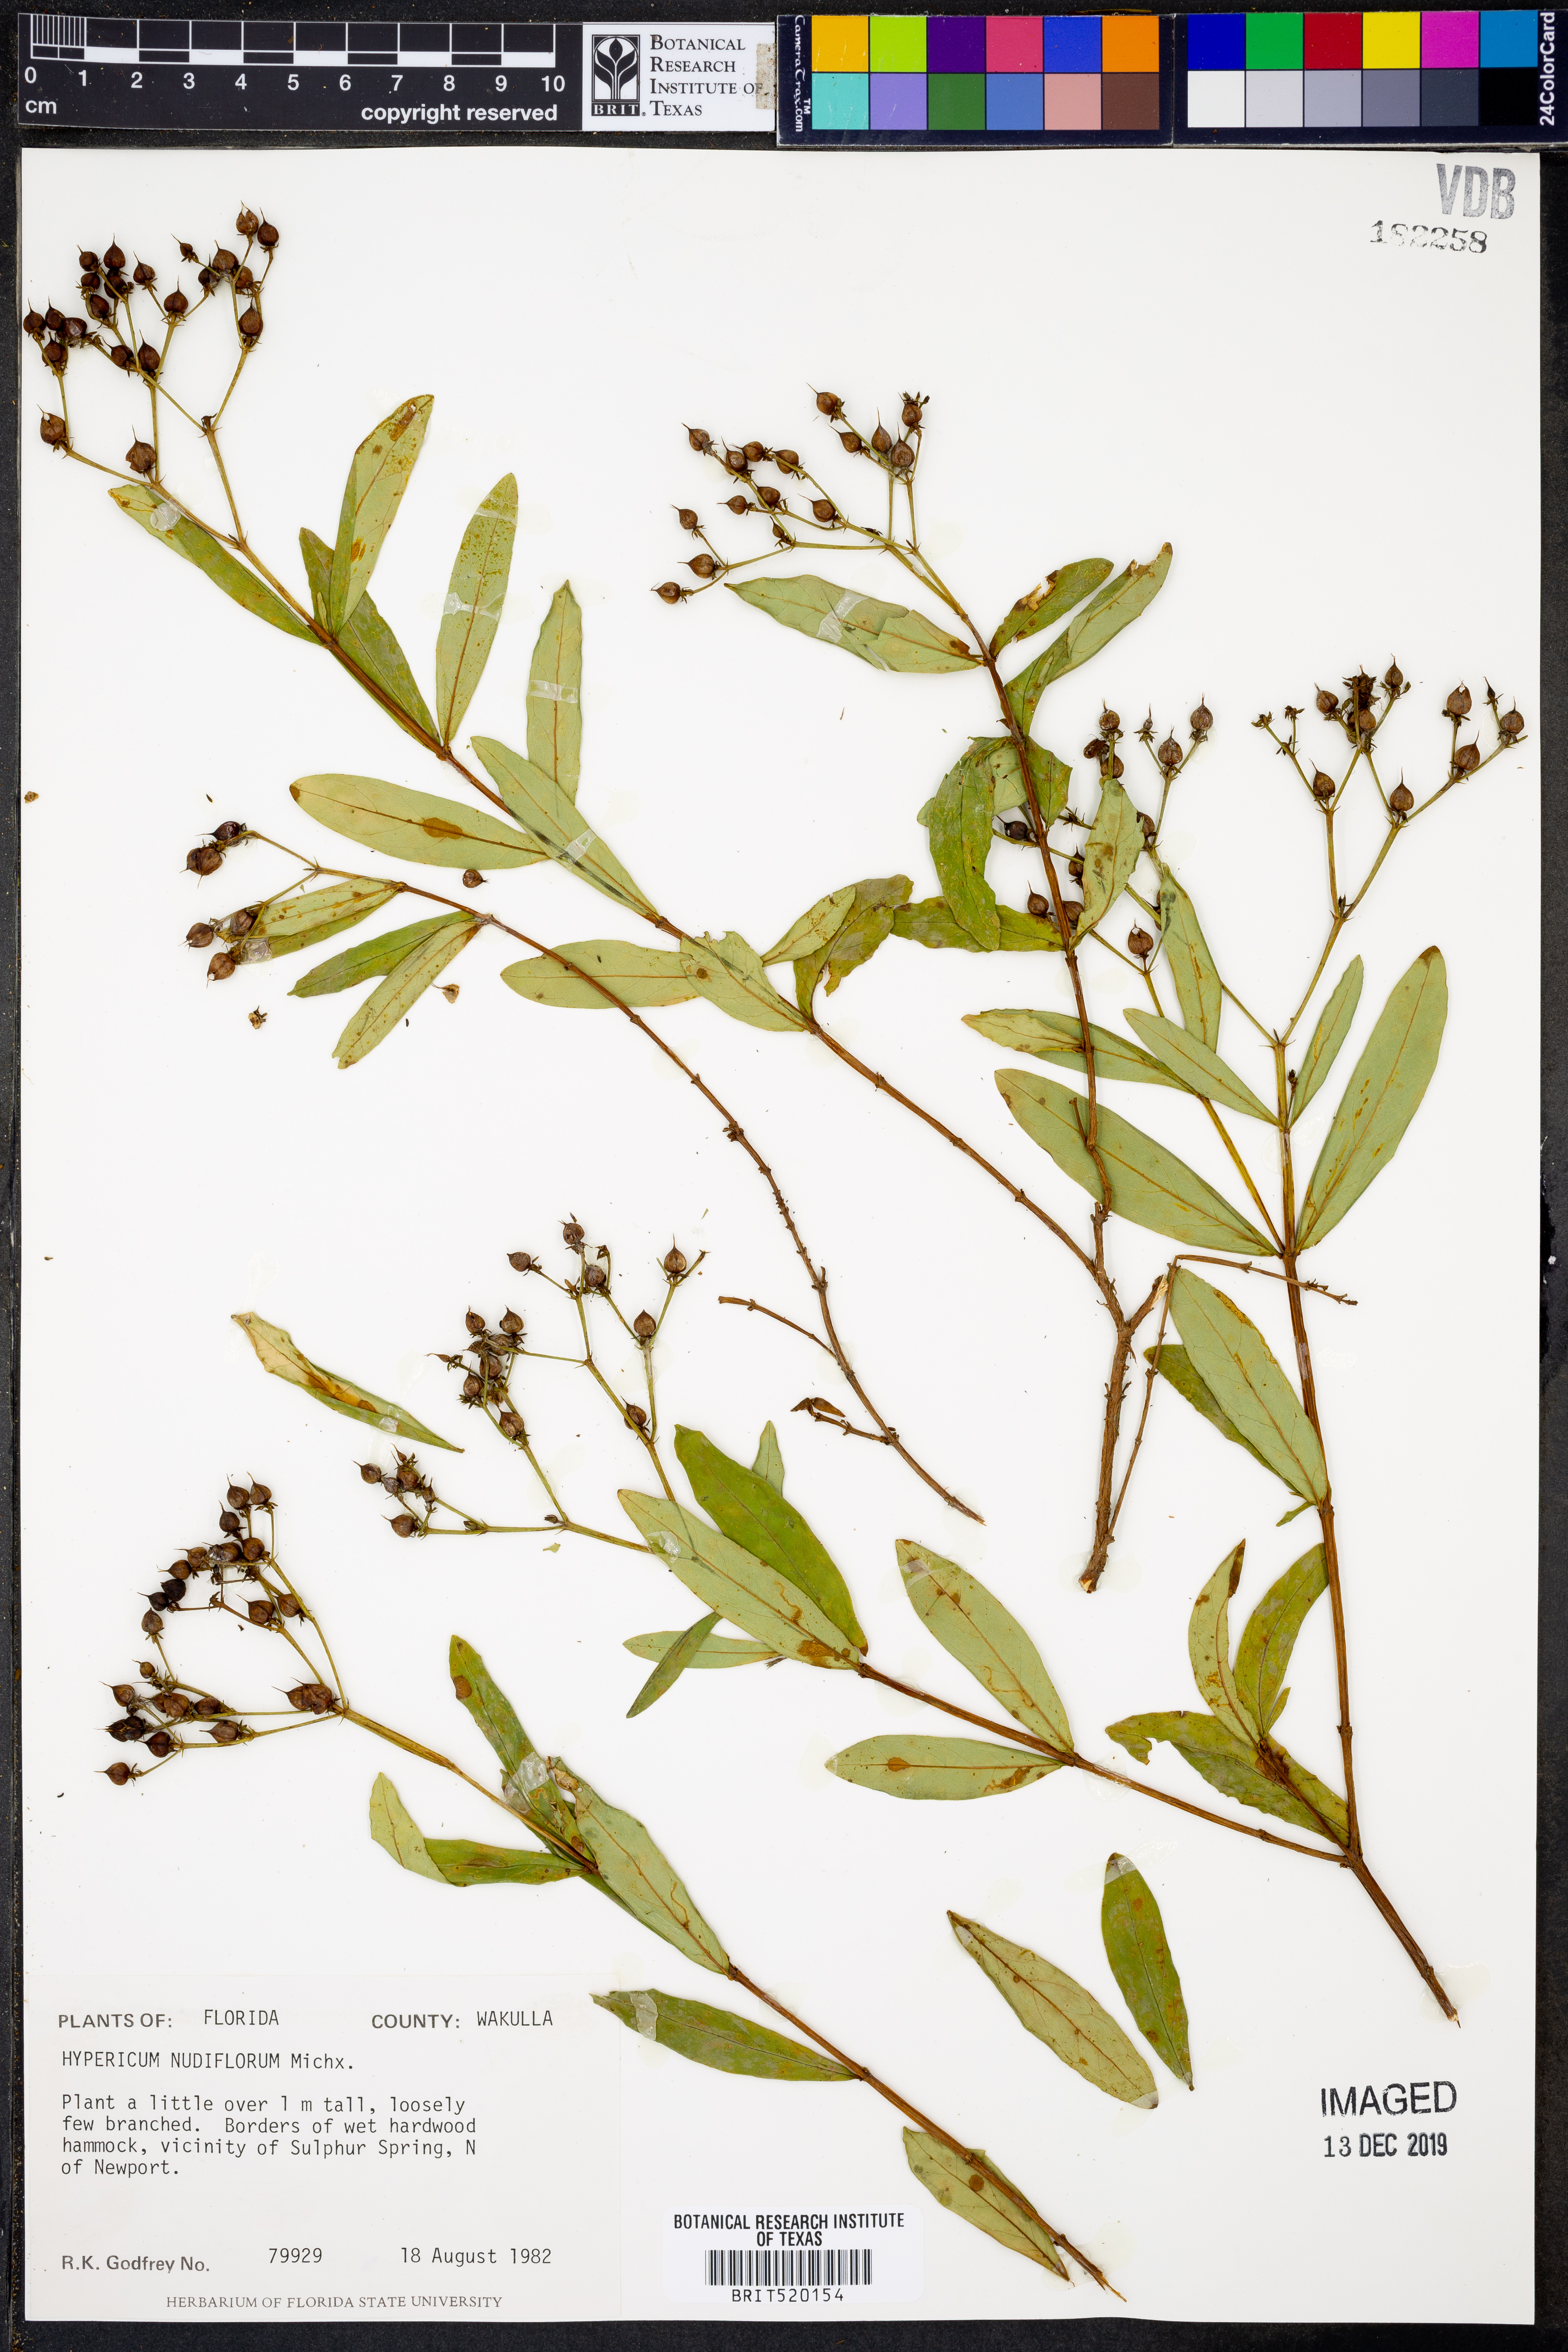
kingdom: Plantae
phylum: Tracheophyta
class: Magnoliopsida
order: Malpighiales
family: Hypericaceae
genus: Hypericum
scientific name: Hypericum nudiflorum
